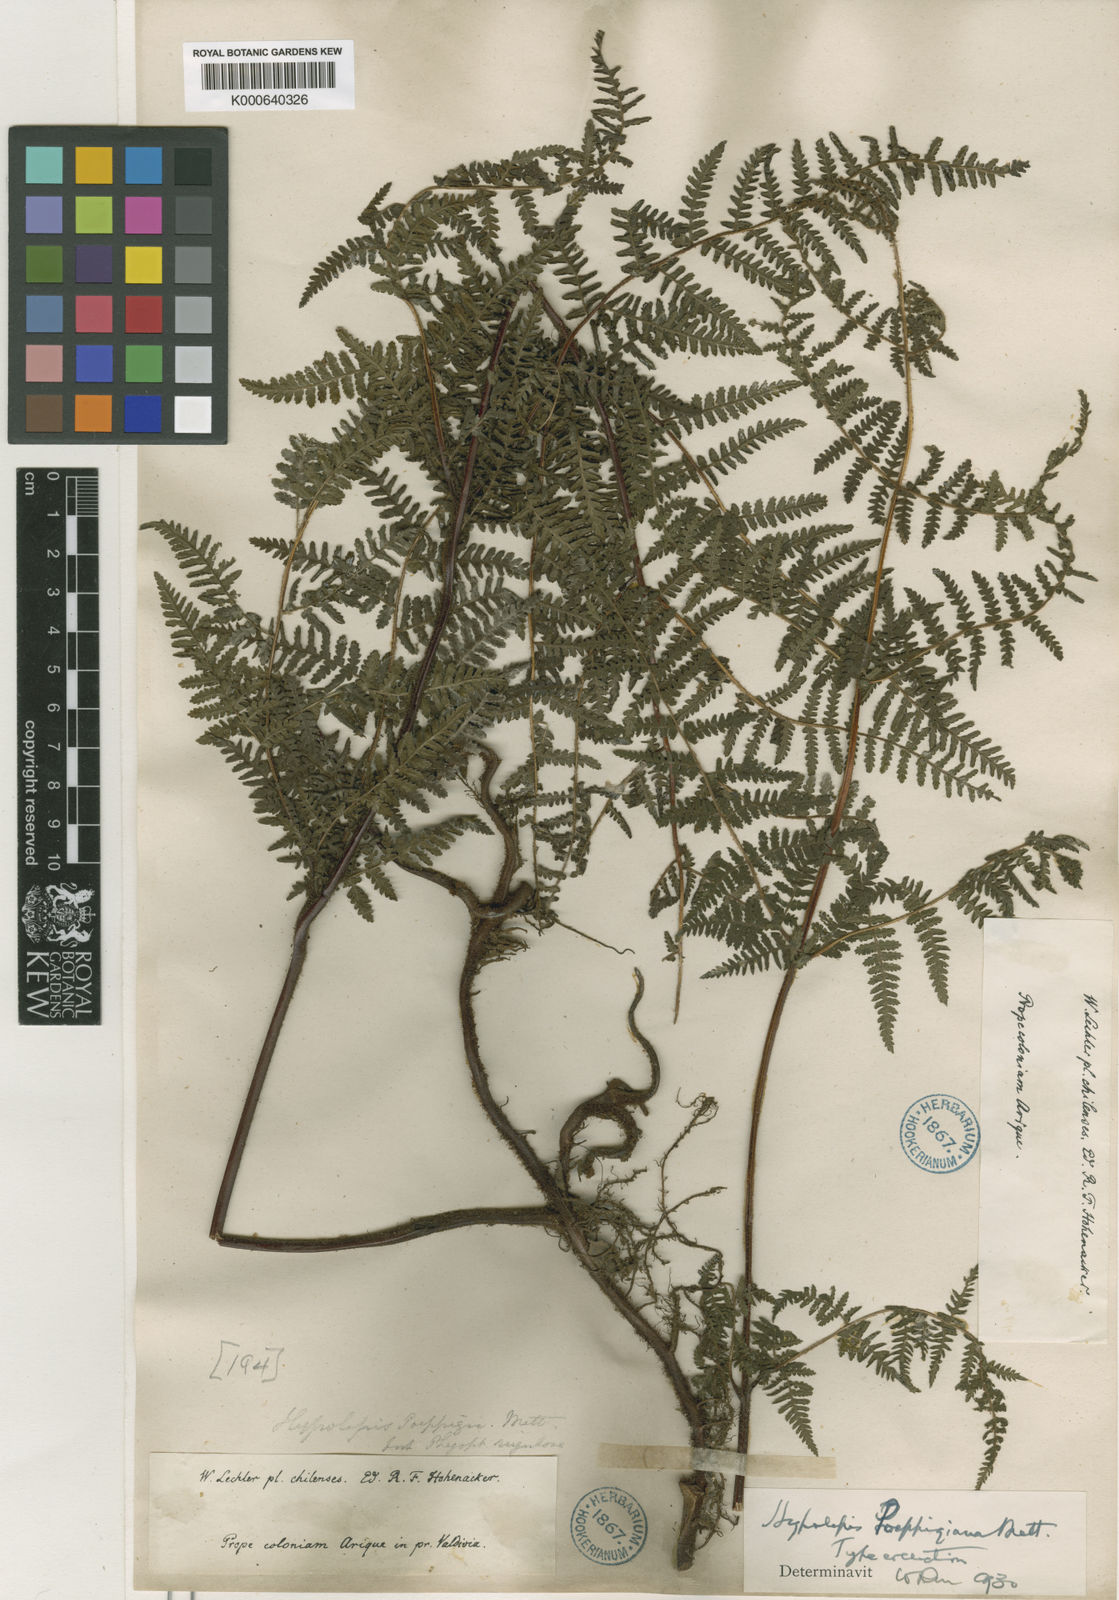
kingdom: Plantae
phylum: Tracheophyta
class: Polypodiopsida
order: Polypodiales
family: Dennstaedtiaceae
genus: Hypolepis
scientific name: Hypolepis rugosula
